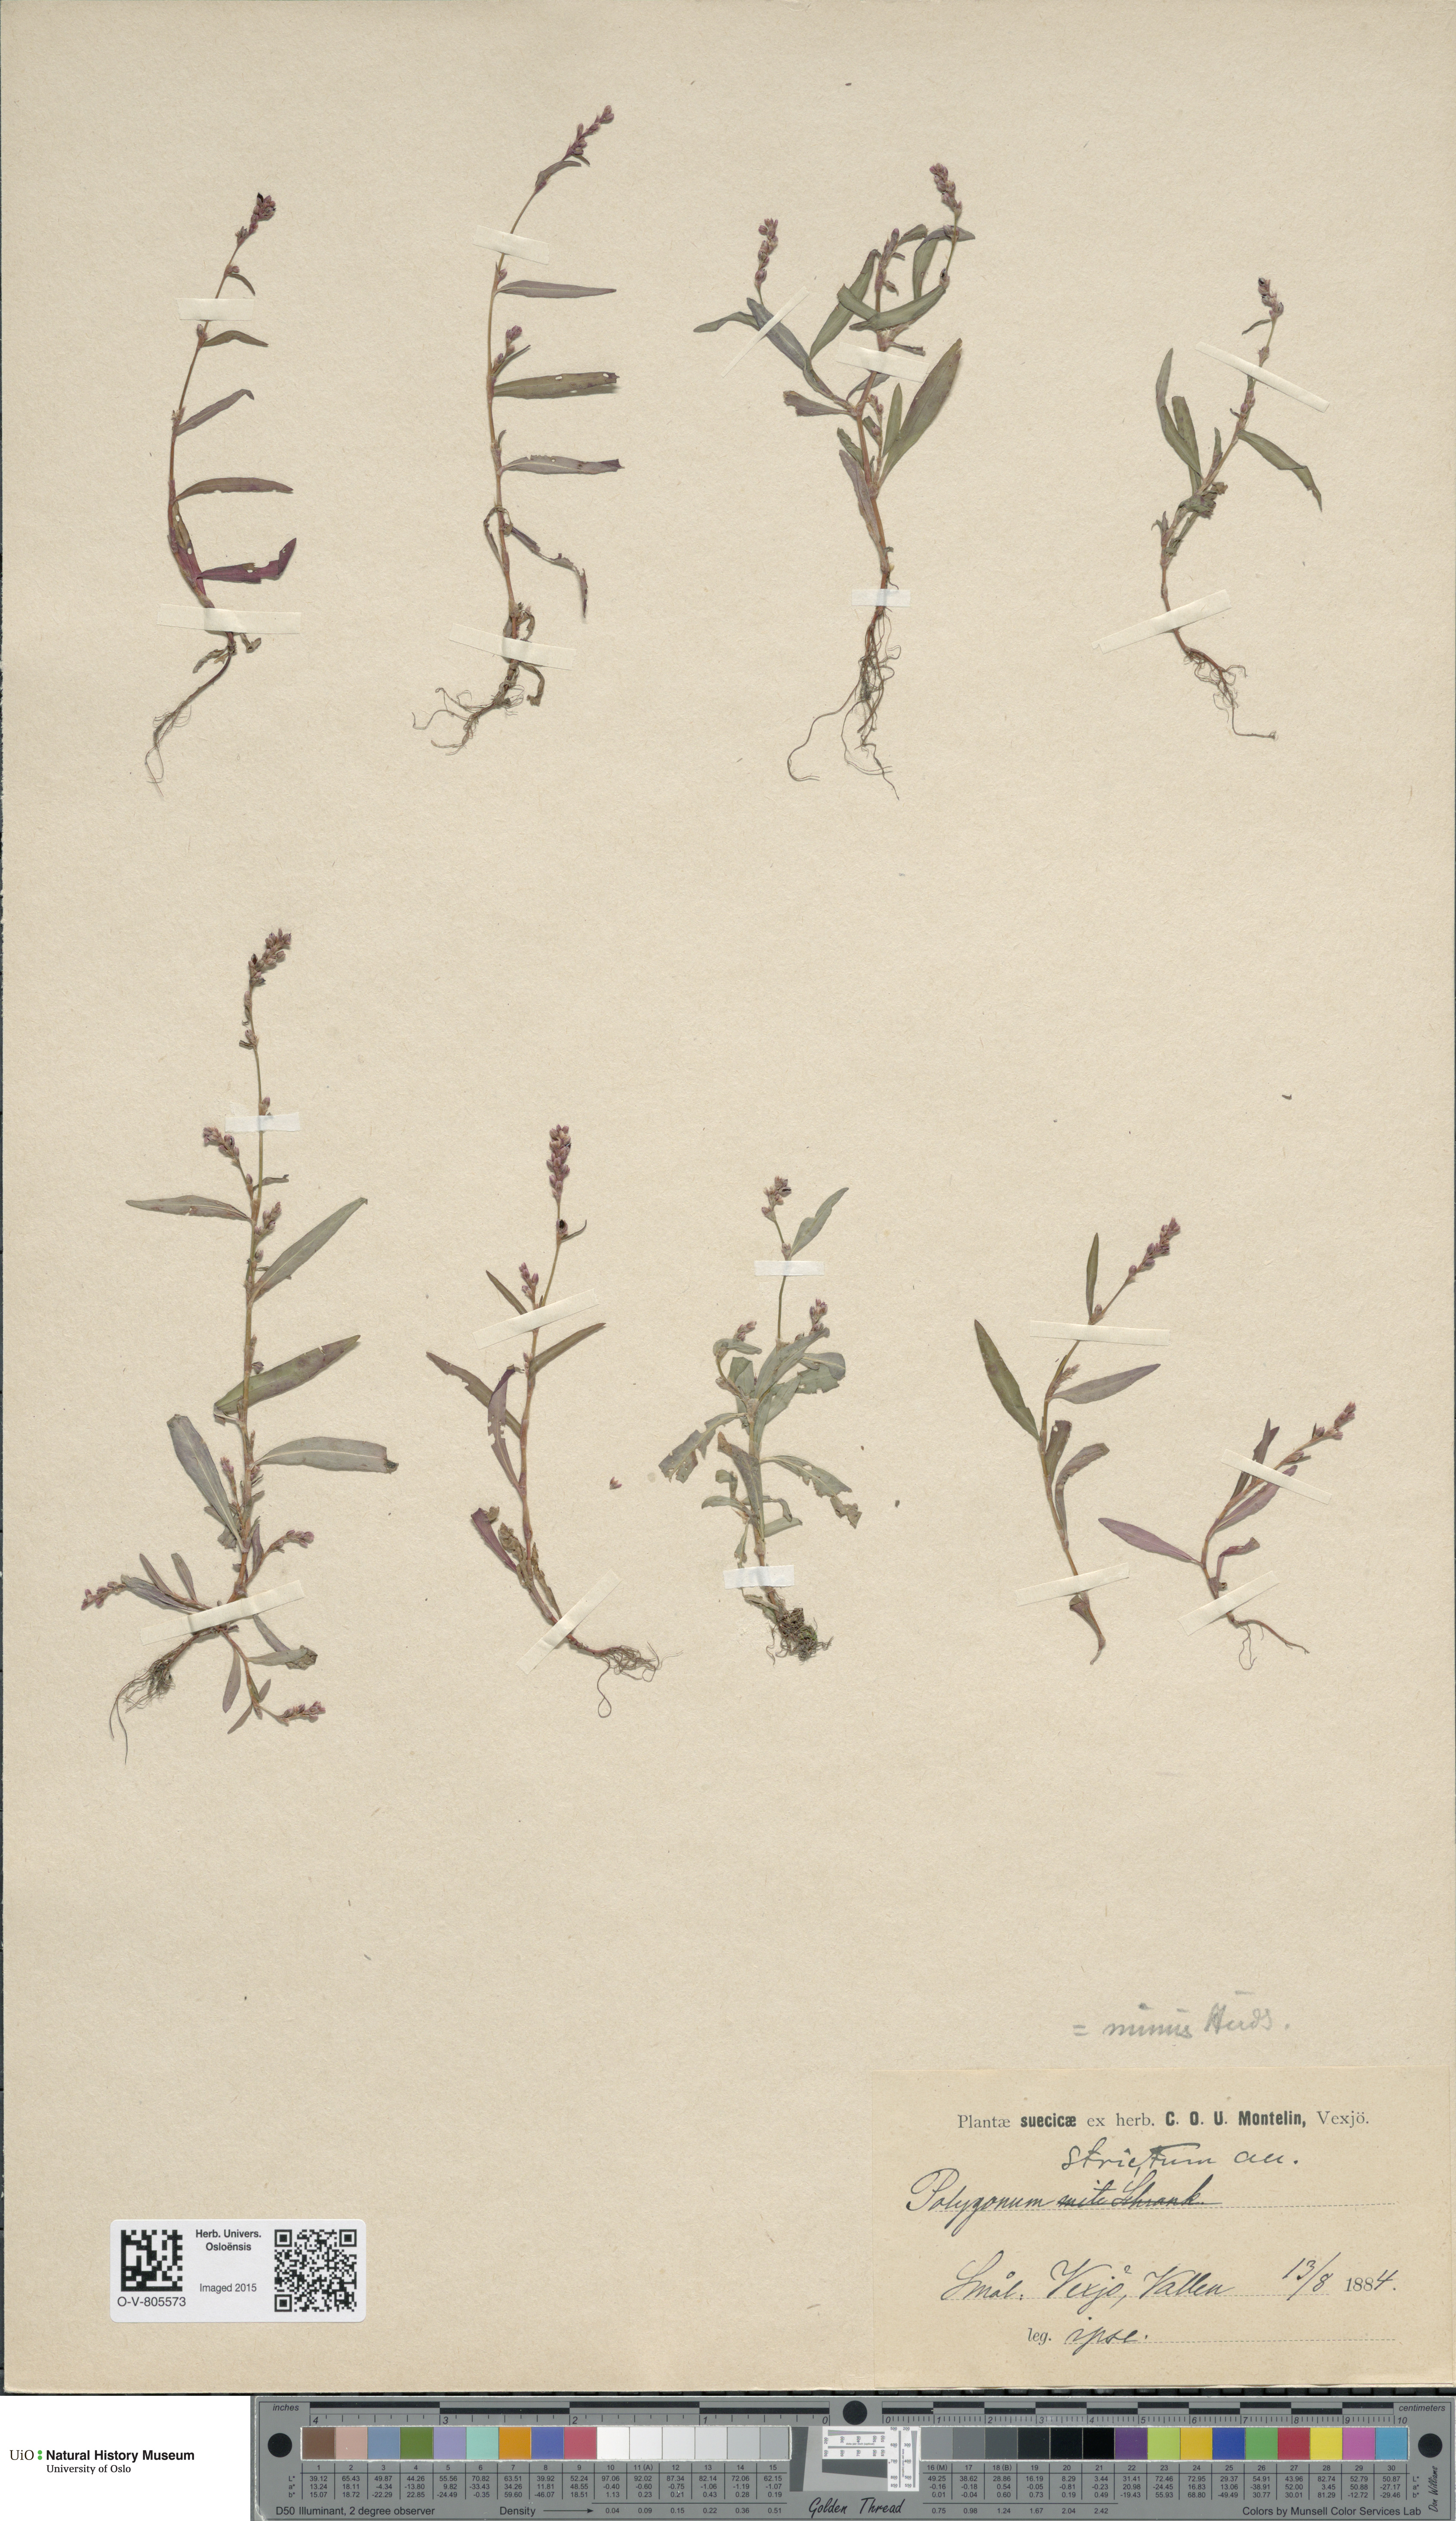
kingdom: Plantae
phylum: Tracheophyta
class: Magnoliopsida
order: Caryophyllales
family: Polygonaceae
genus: Persicaria
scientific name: Persicaria minor
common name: Small water-pepper
